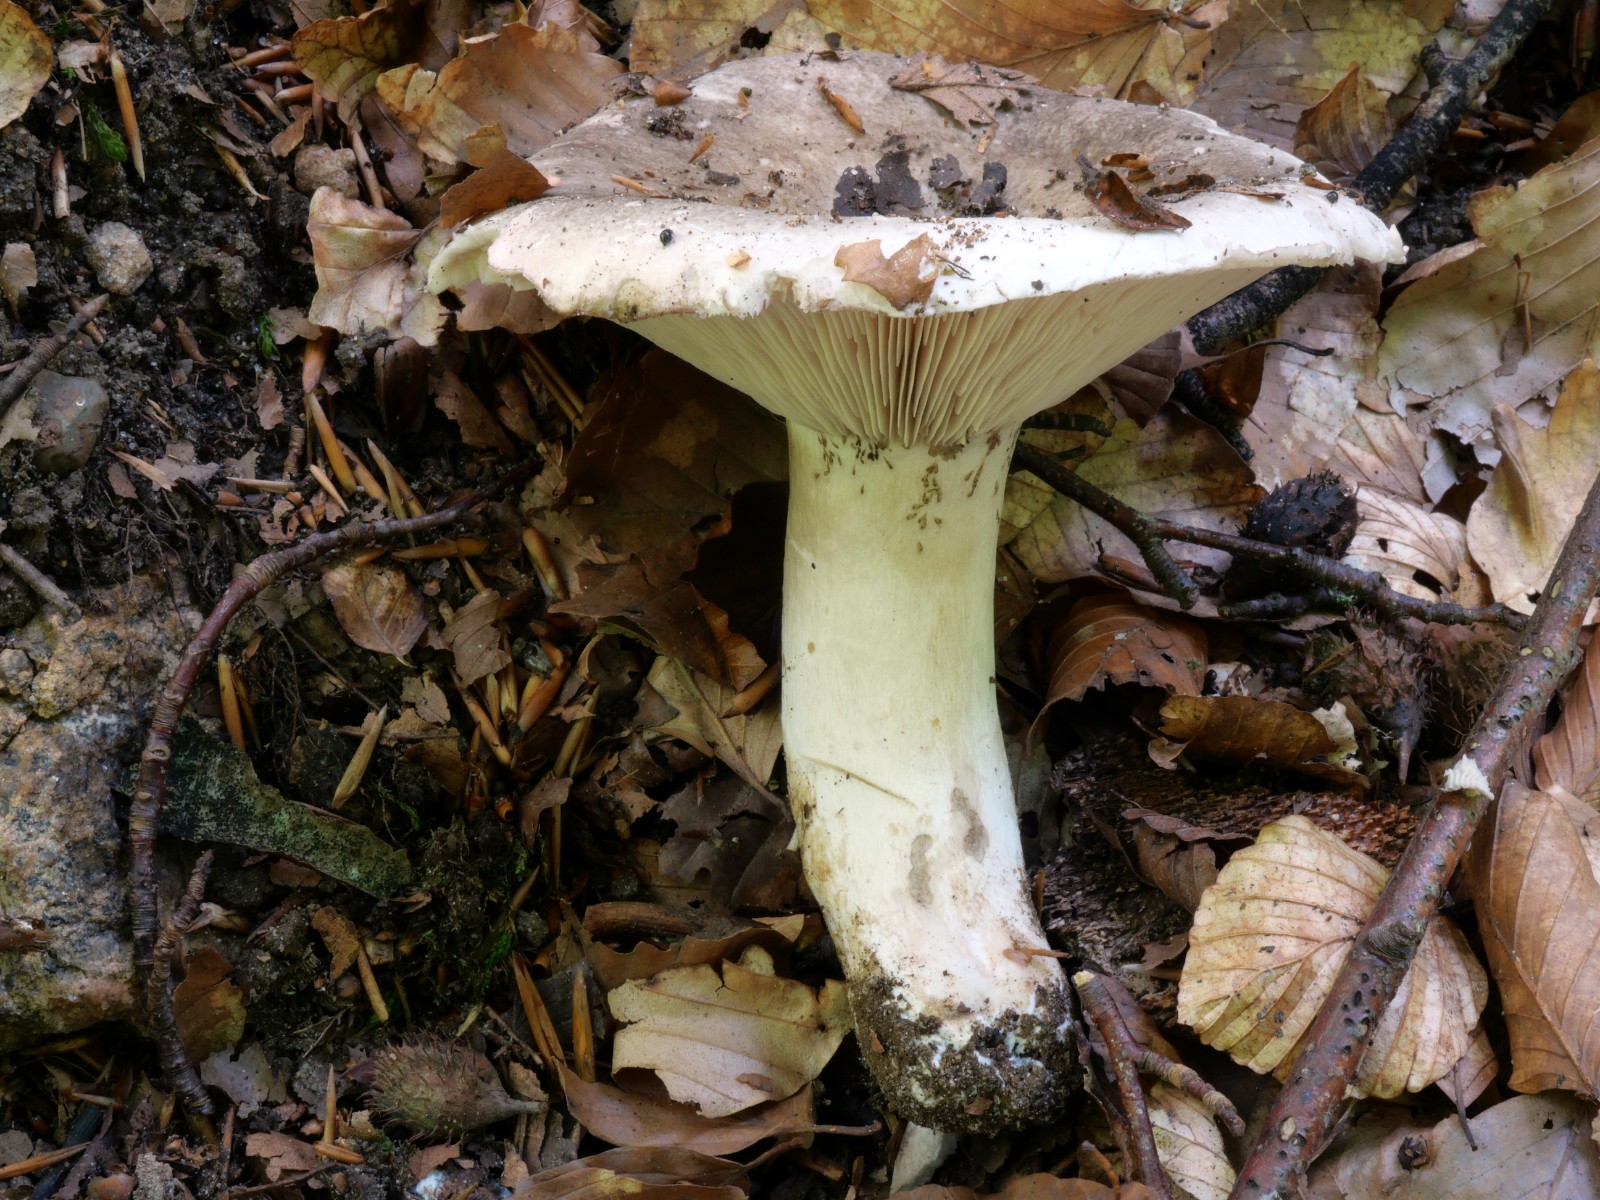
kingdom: Fungi
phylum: Basidiomycota
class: Agaricomycetes
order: Russulales
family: Russulaceae
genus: Russula
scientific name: Russula anthracina
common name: kul-skørhat
